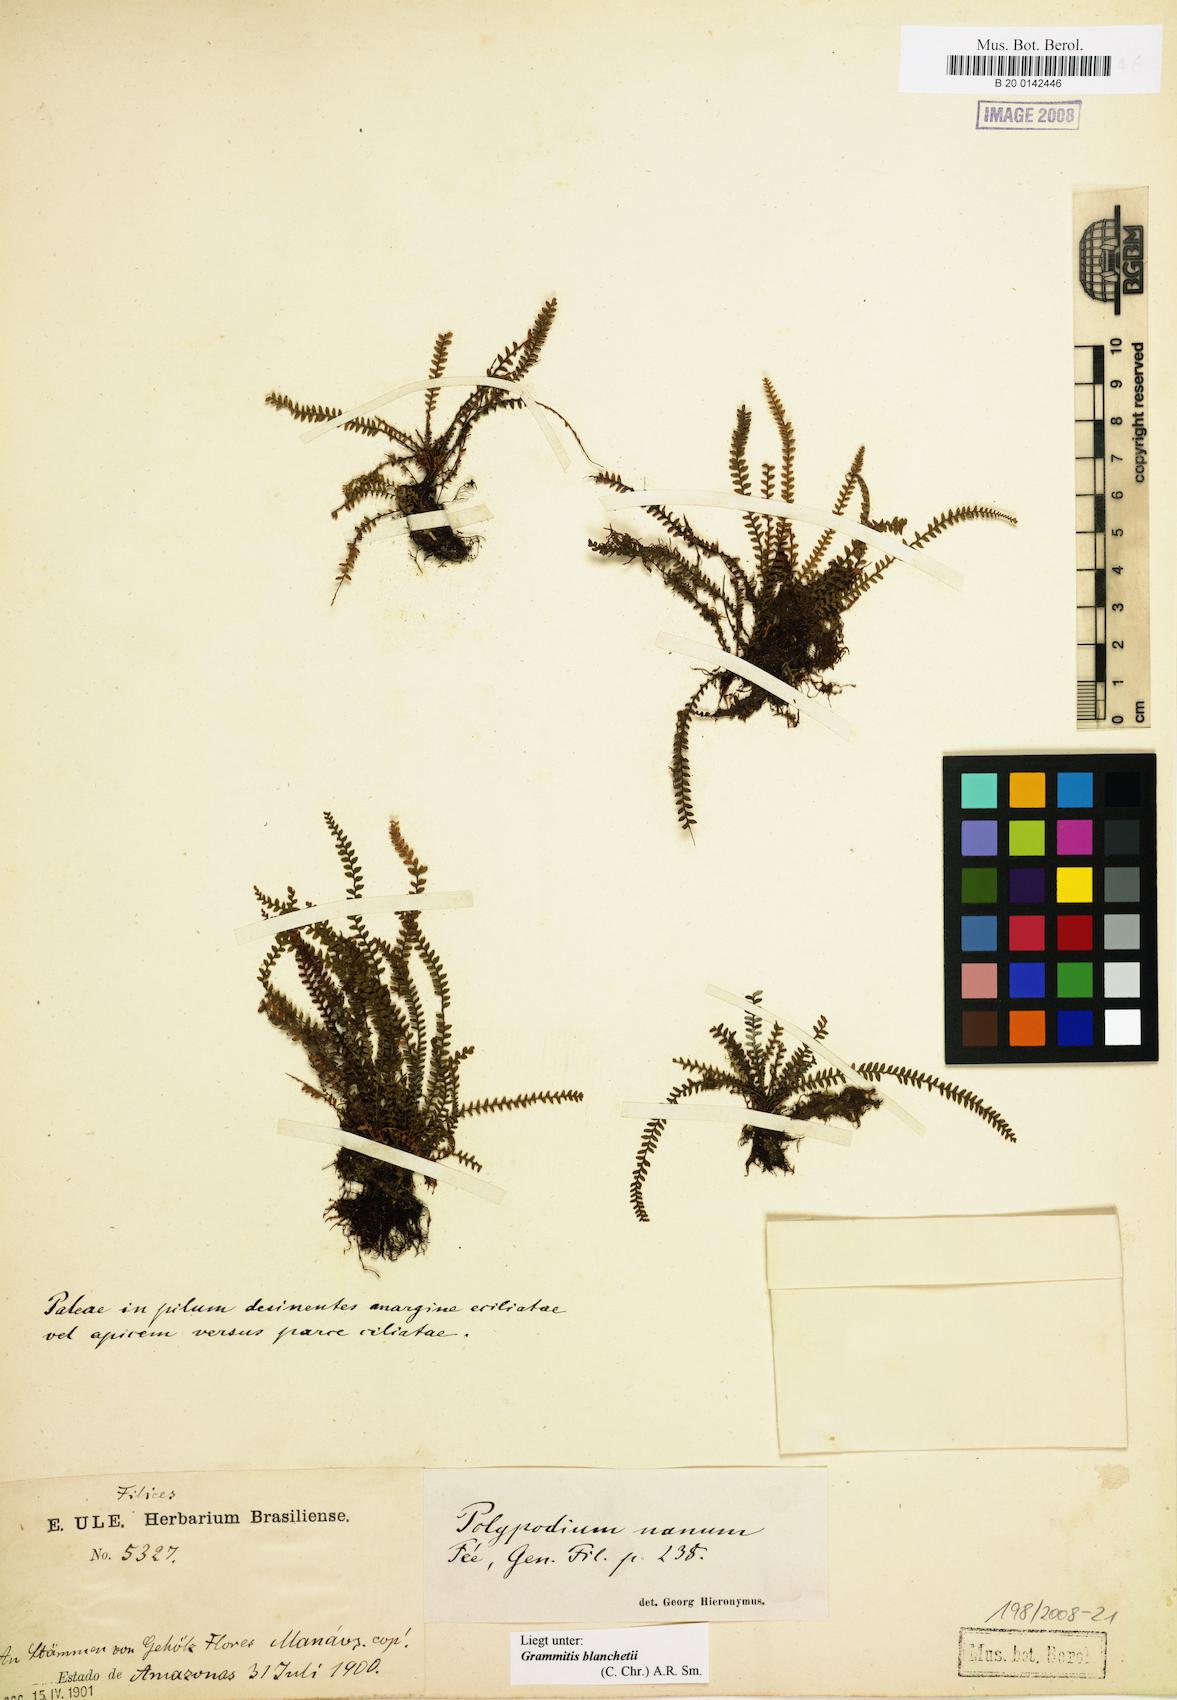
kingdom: Plantae
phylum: Tracheophyta
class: Polypodiopsida
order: Polypodiales
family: Polypodiaceae
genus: Moranopteris
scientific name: Moranopteris nana
